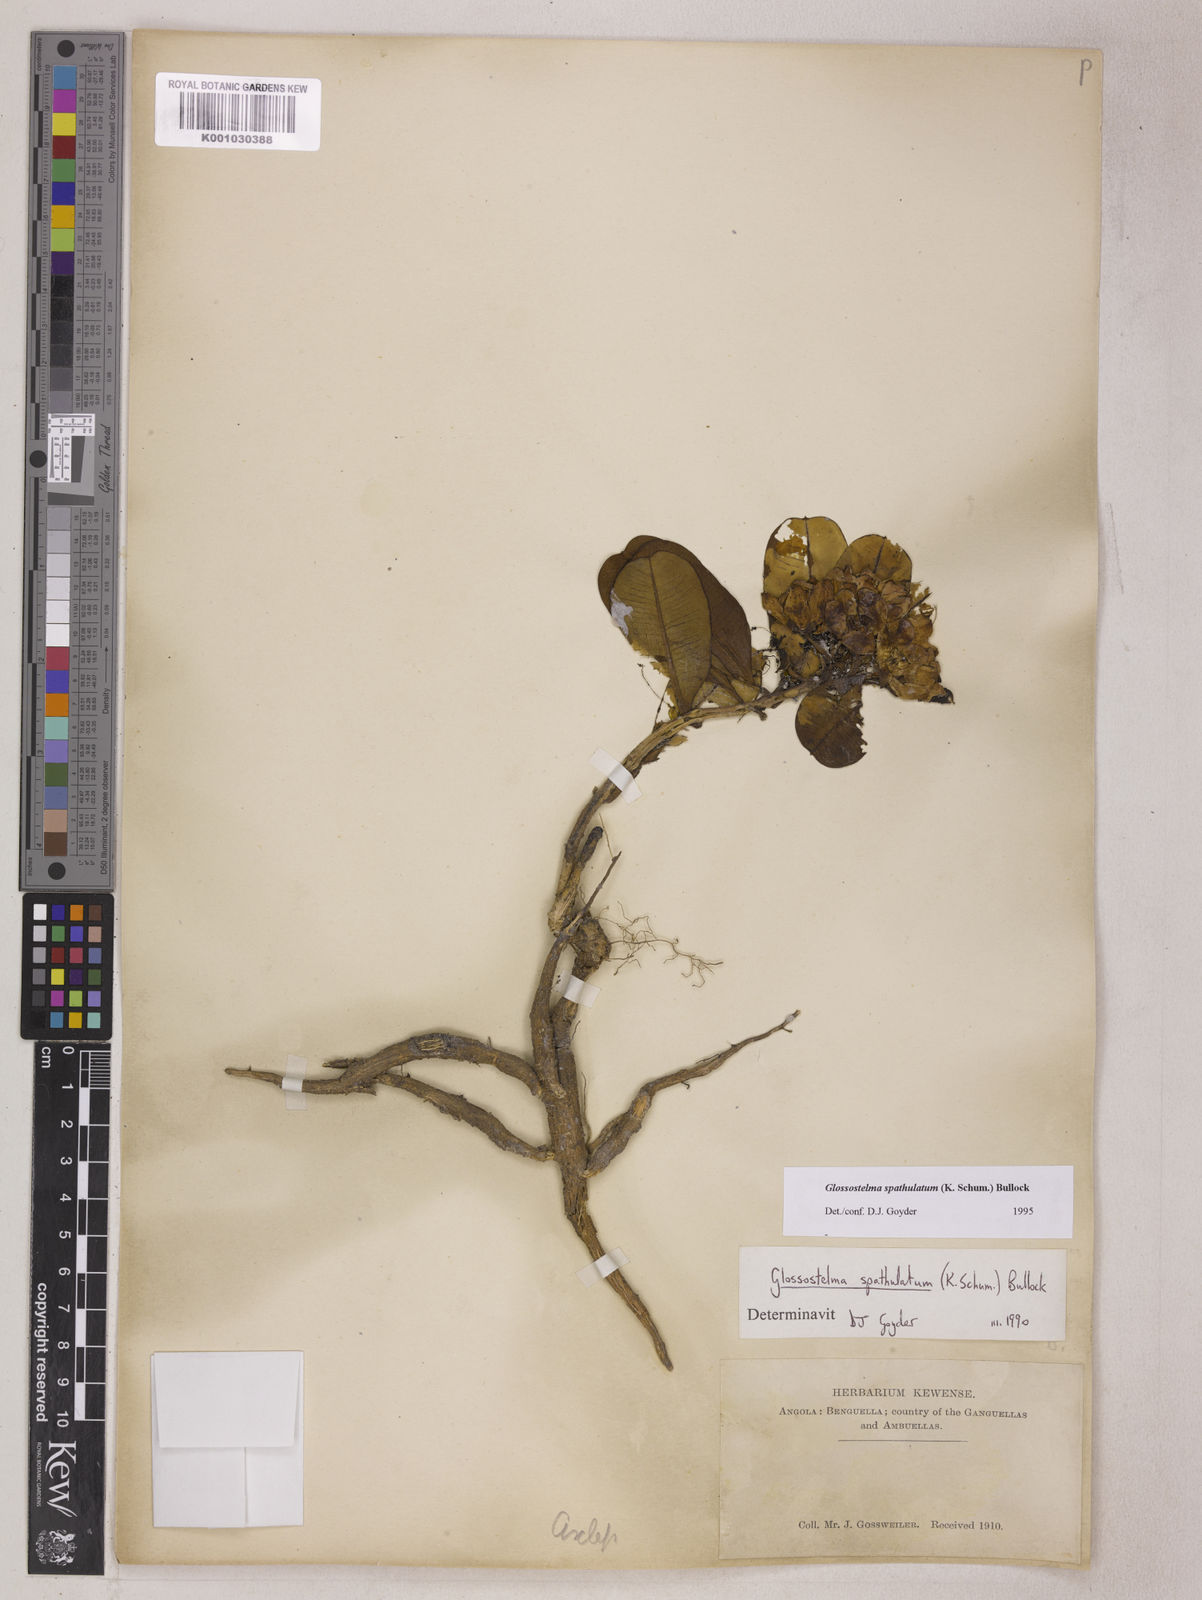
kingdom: Plantae
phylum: Tracheophyta
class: Magnoliopsida
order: Gentianales
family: Apocynaceae
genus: Glossostelma
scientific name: Glossostelma spathulatum
